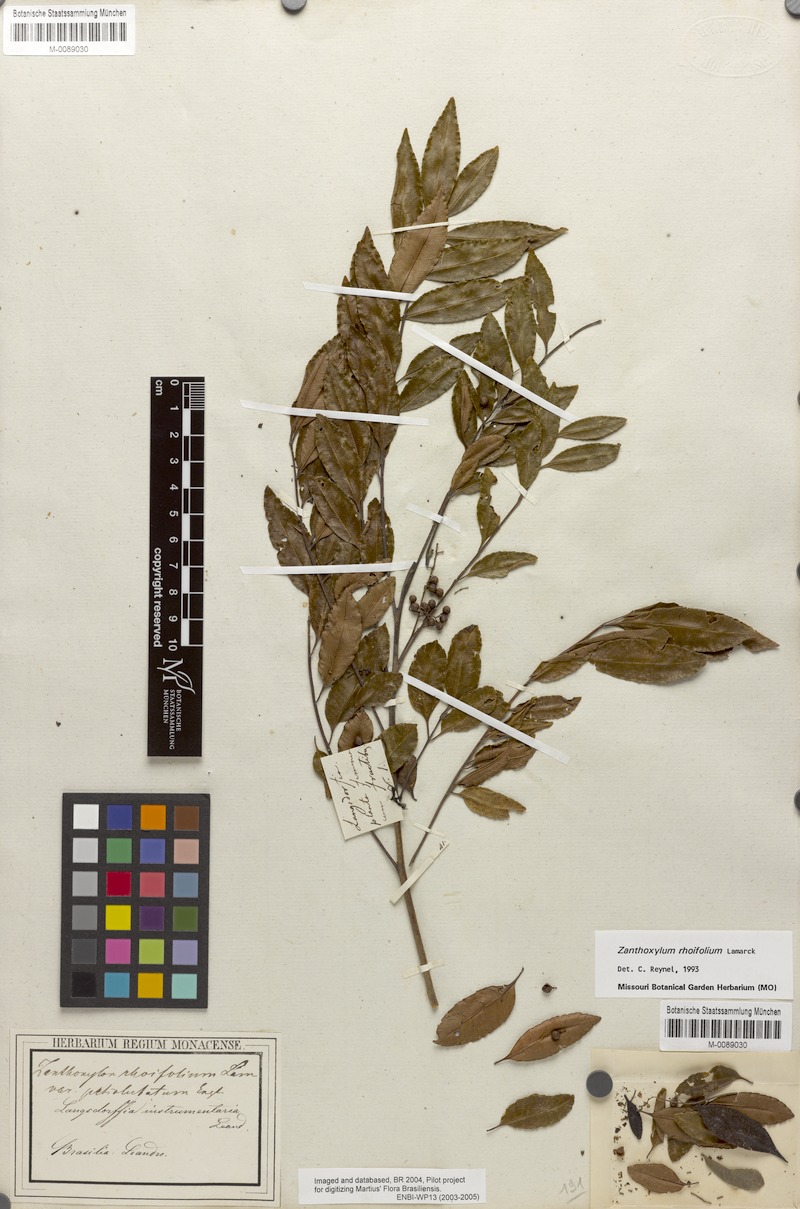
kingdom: Plantae
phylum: Tracheophyta
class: Magnoliopsida
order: Sapindales
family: Rutaceae
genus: Zanthoxylum
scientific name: Zanthoxylum rhoifolium
